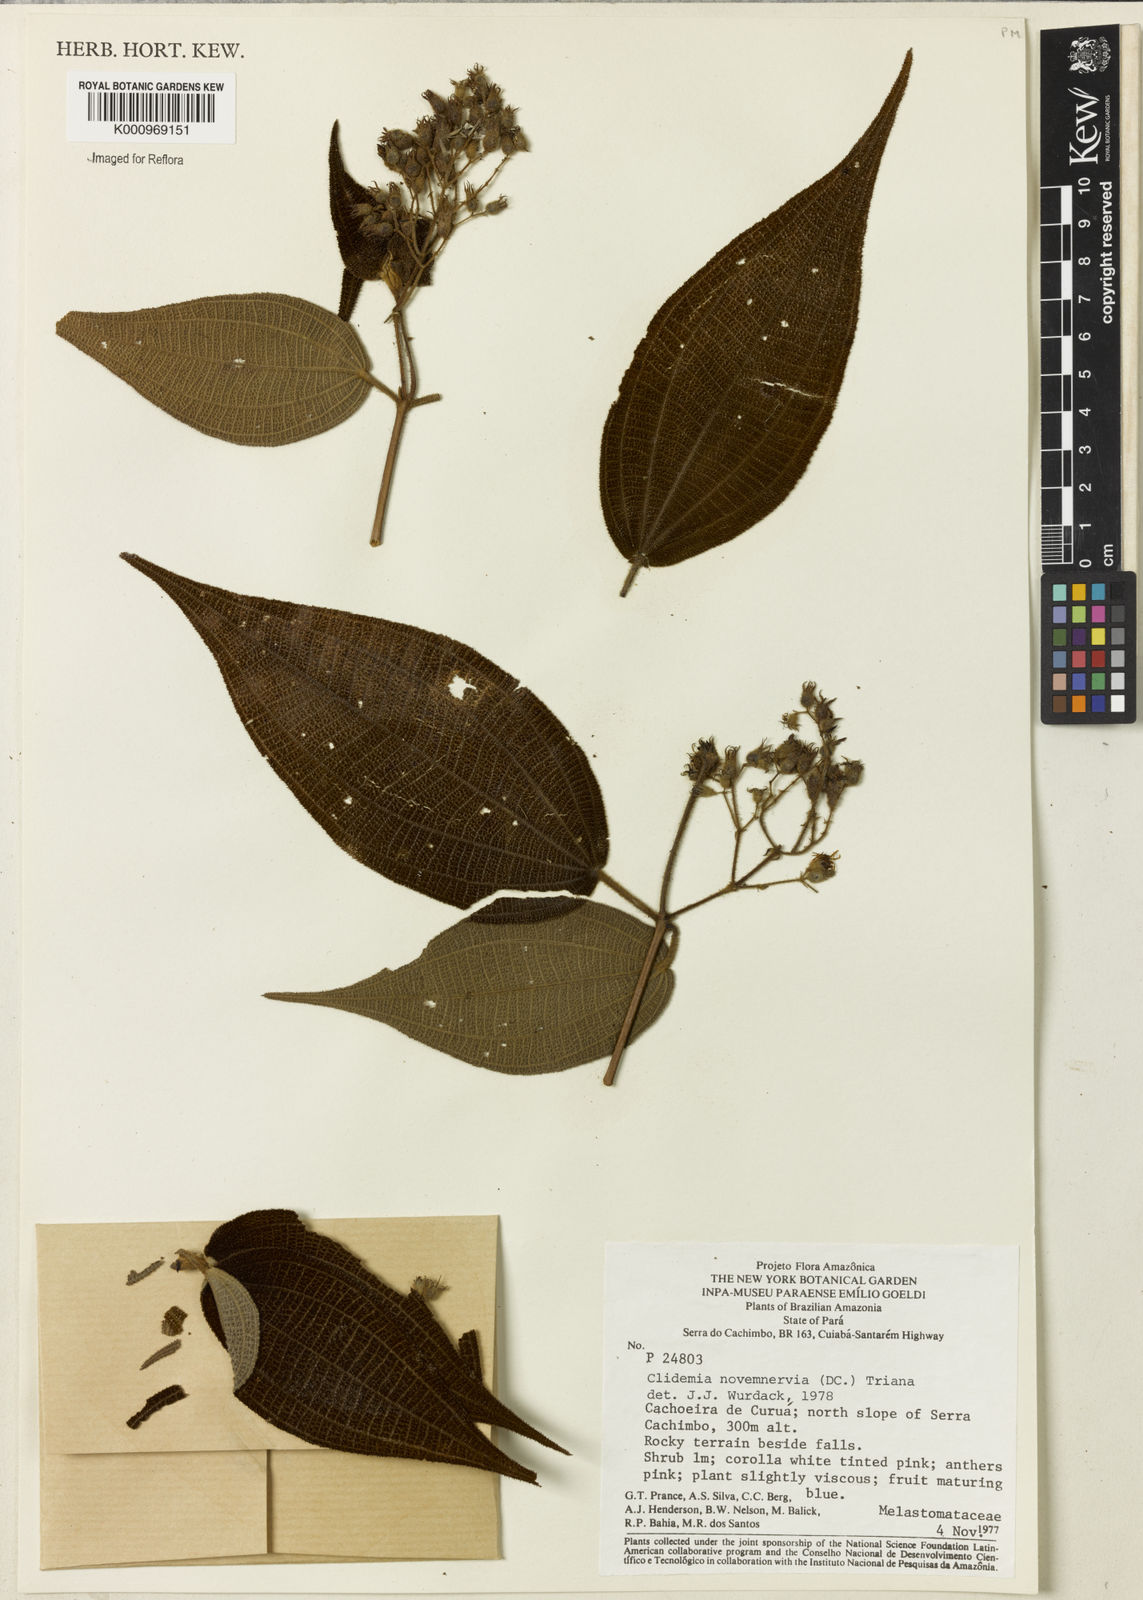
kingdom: Plantae
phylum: Tracheophyta
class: Magnoliopsida
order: Myrtales
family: Melastomataceae
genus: Miconia
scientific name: Miconia bullatifolia
